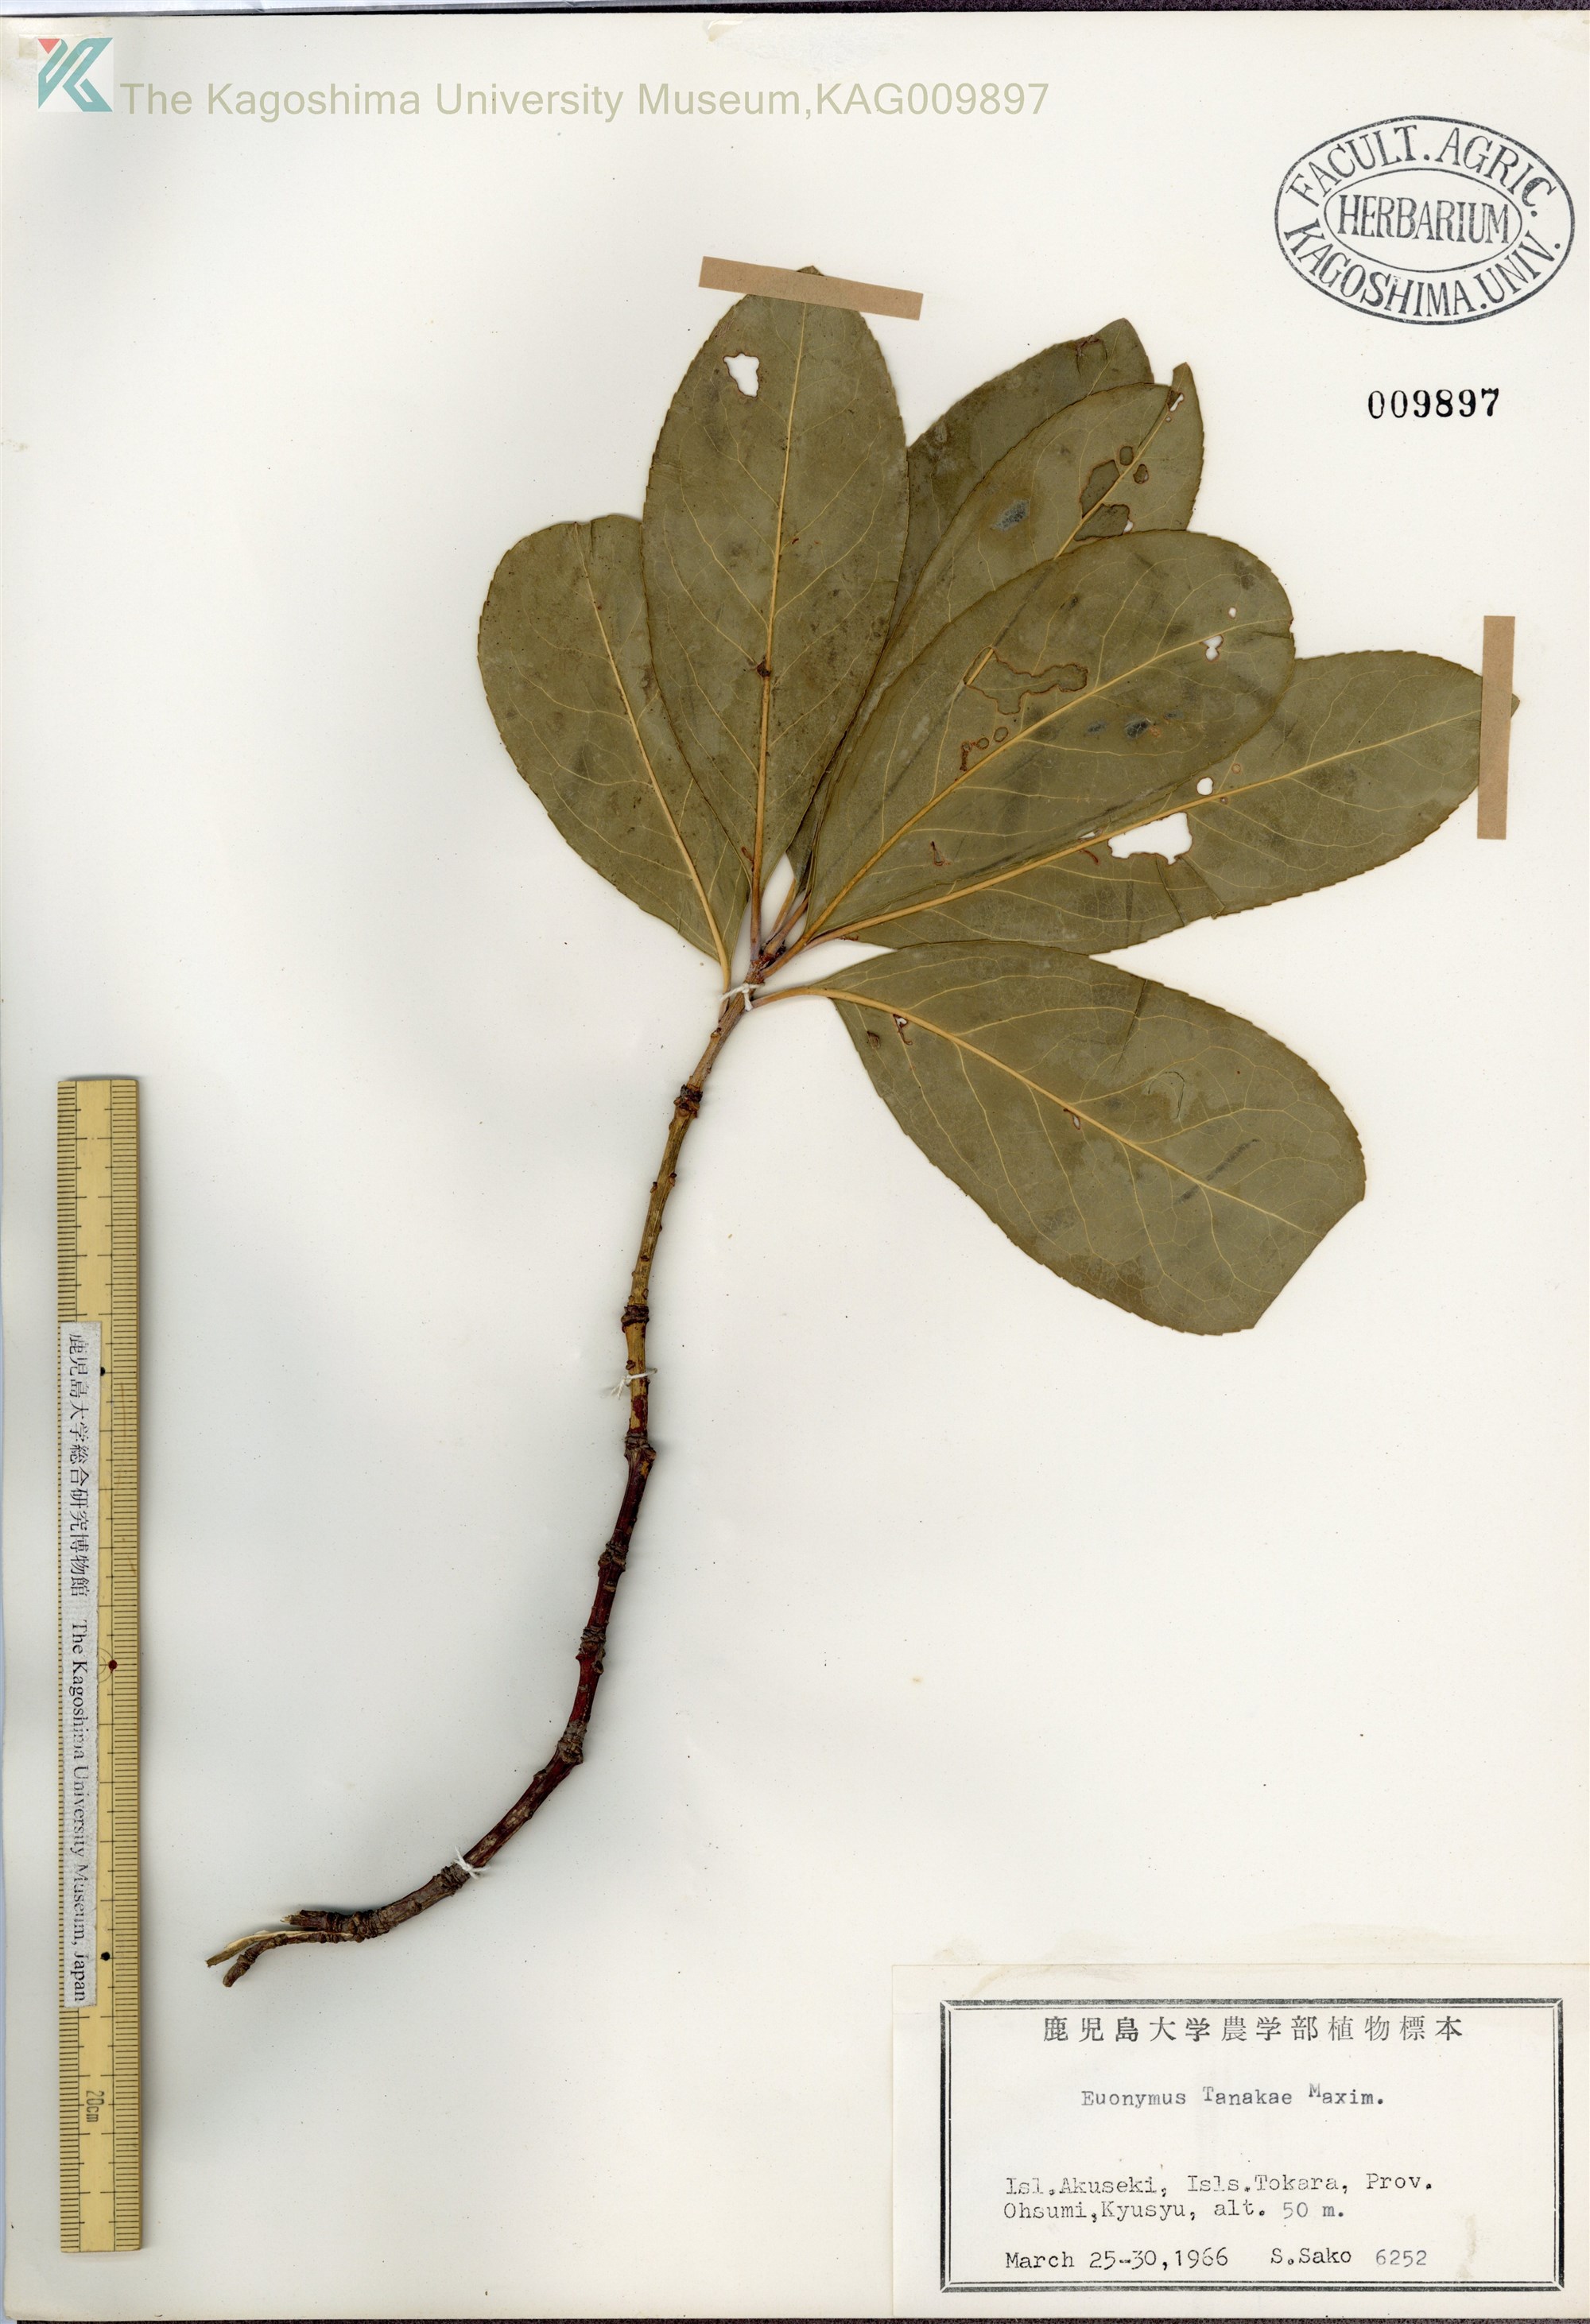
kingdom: Plantae
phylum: Tracheophyta
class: Magnoliopsida
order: Celastrales
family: Celastraceae
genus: Euonymus
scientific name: Euonymus carnosus
